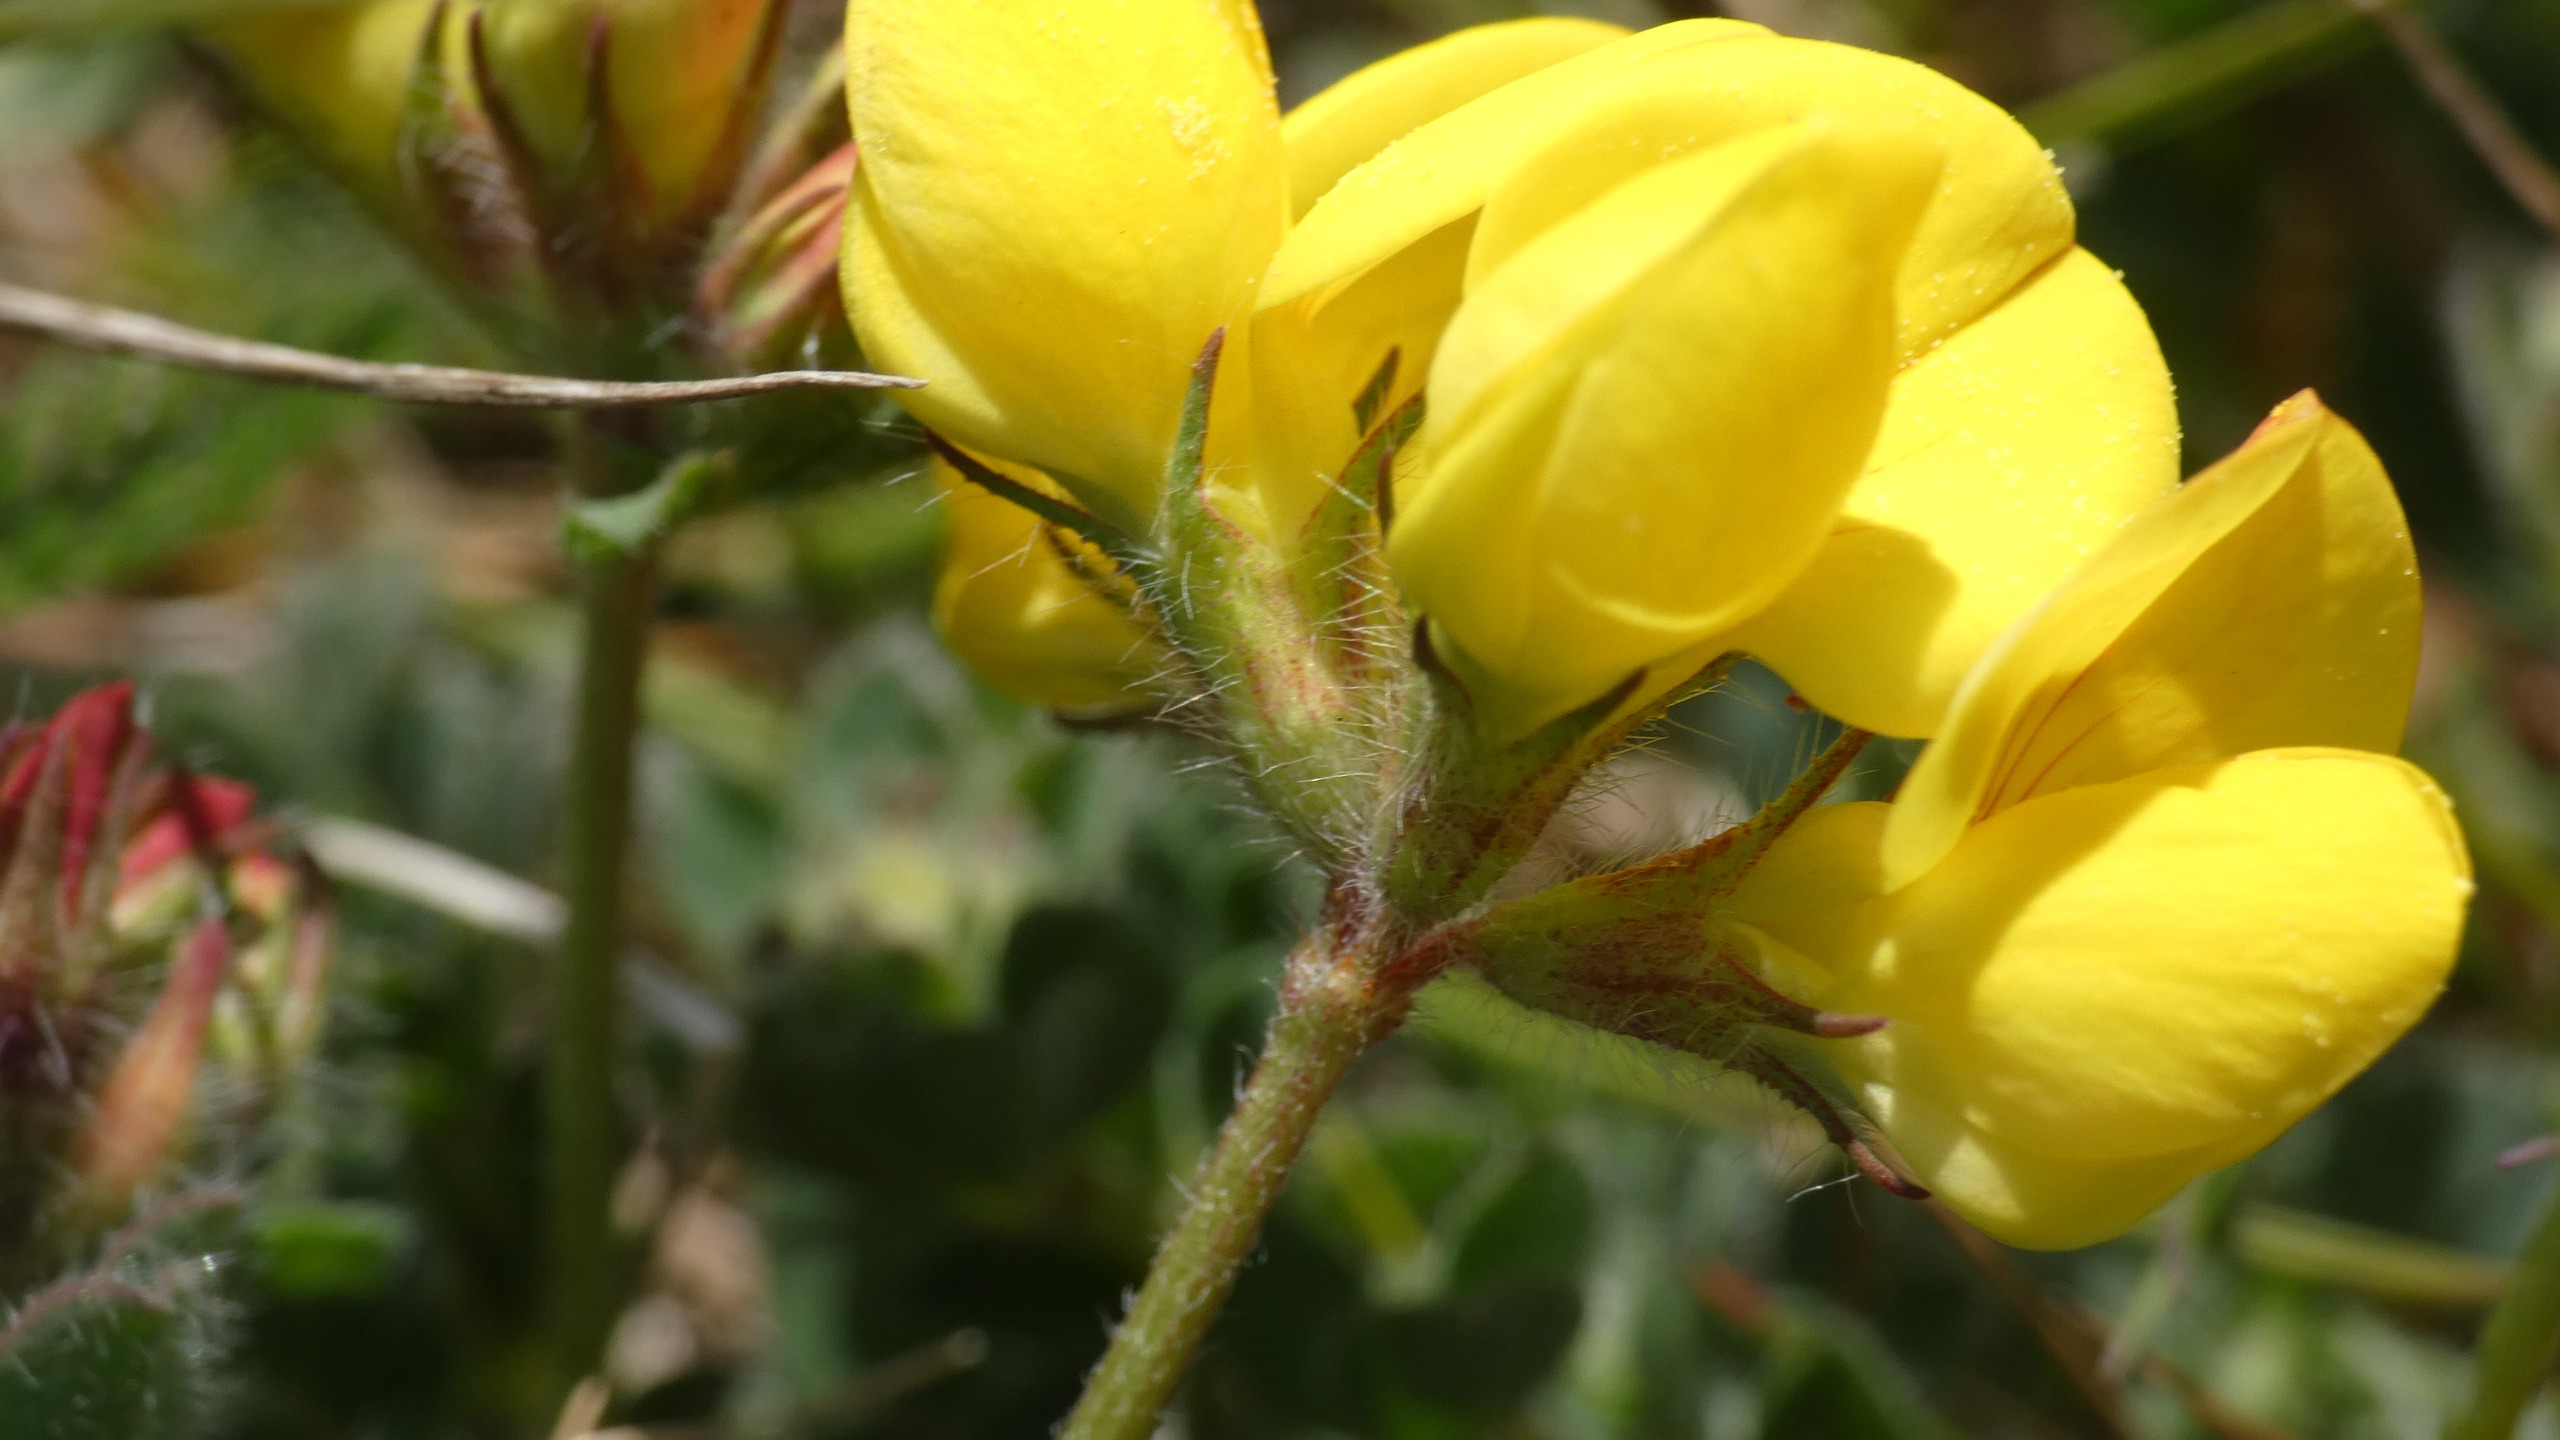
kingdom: Plantae
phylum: Tracheophyta
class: Magnoliopsida
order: Fabales
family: Fabaceae
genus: Lotus
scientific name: Lotus corniculatus
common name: Almindelig kællingetand
